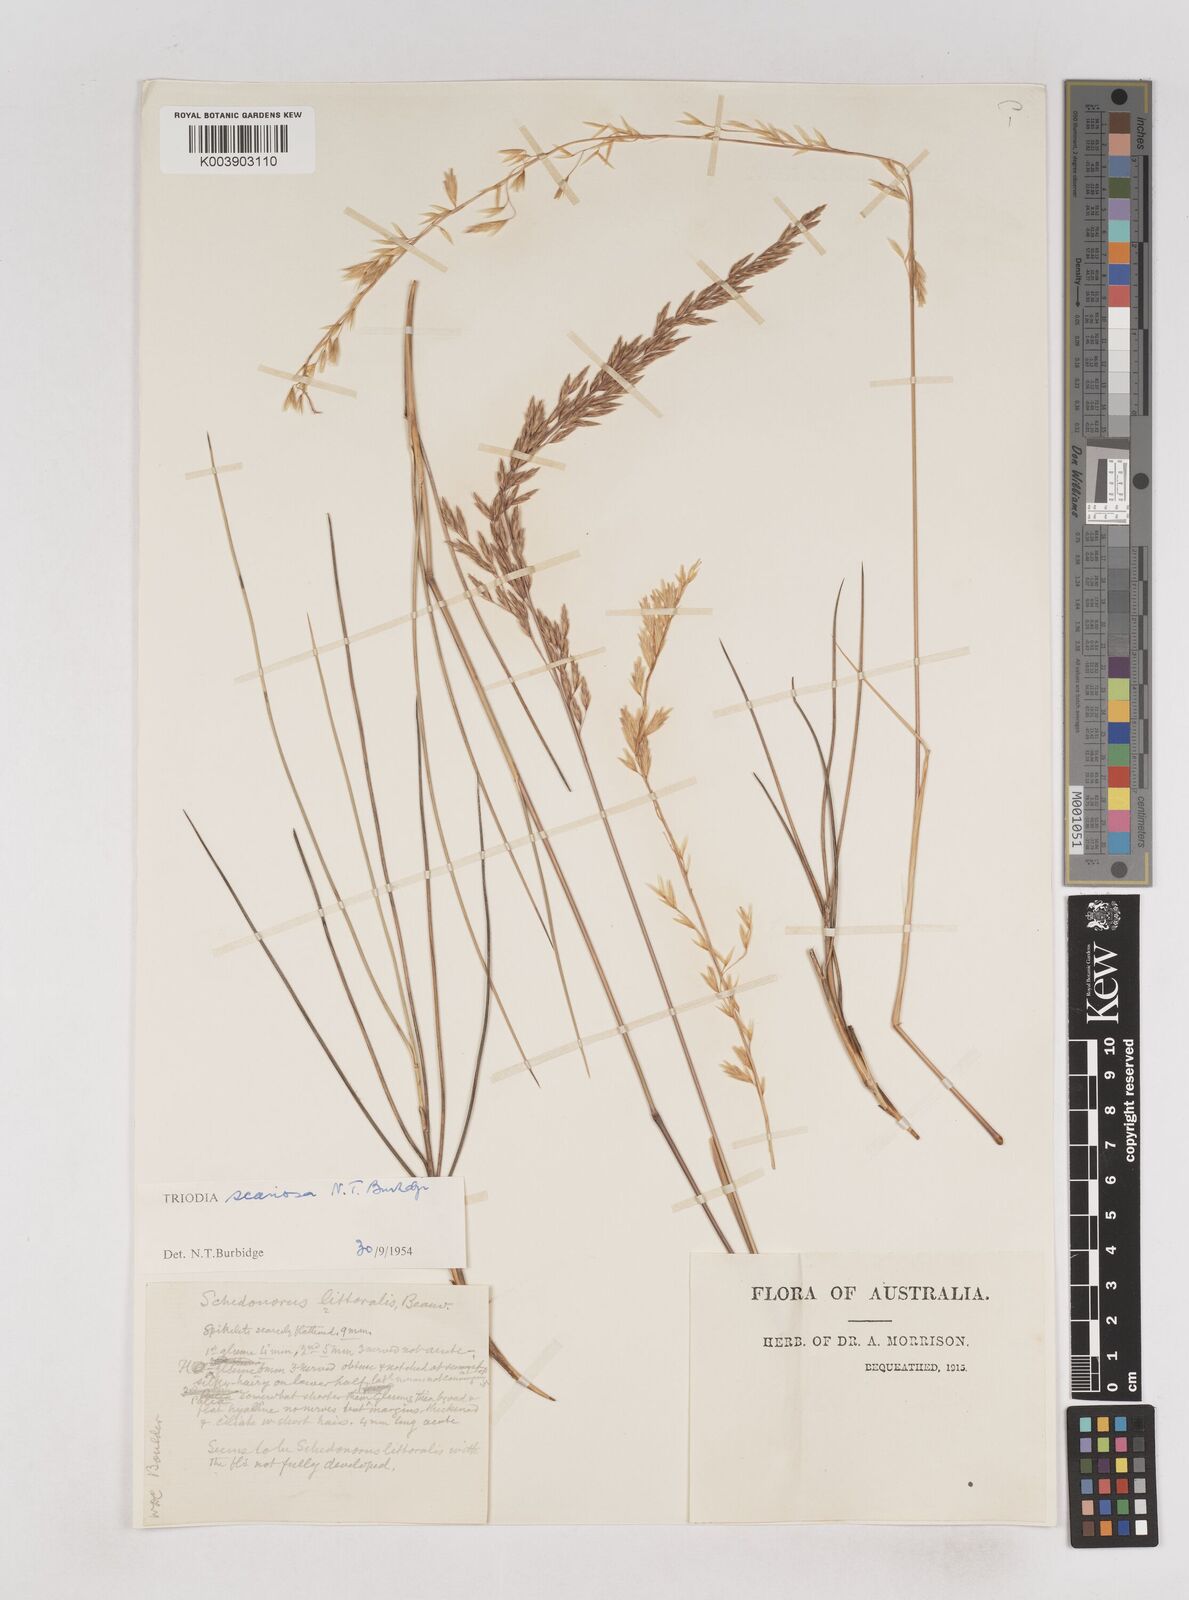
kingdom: Plantae
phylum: Tracheophyta
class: Liliopsida
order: Poales
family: Poaceae
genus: Triodia
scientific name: Triodia scariosa
